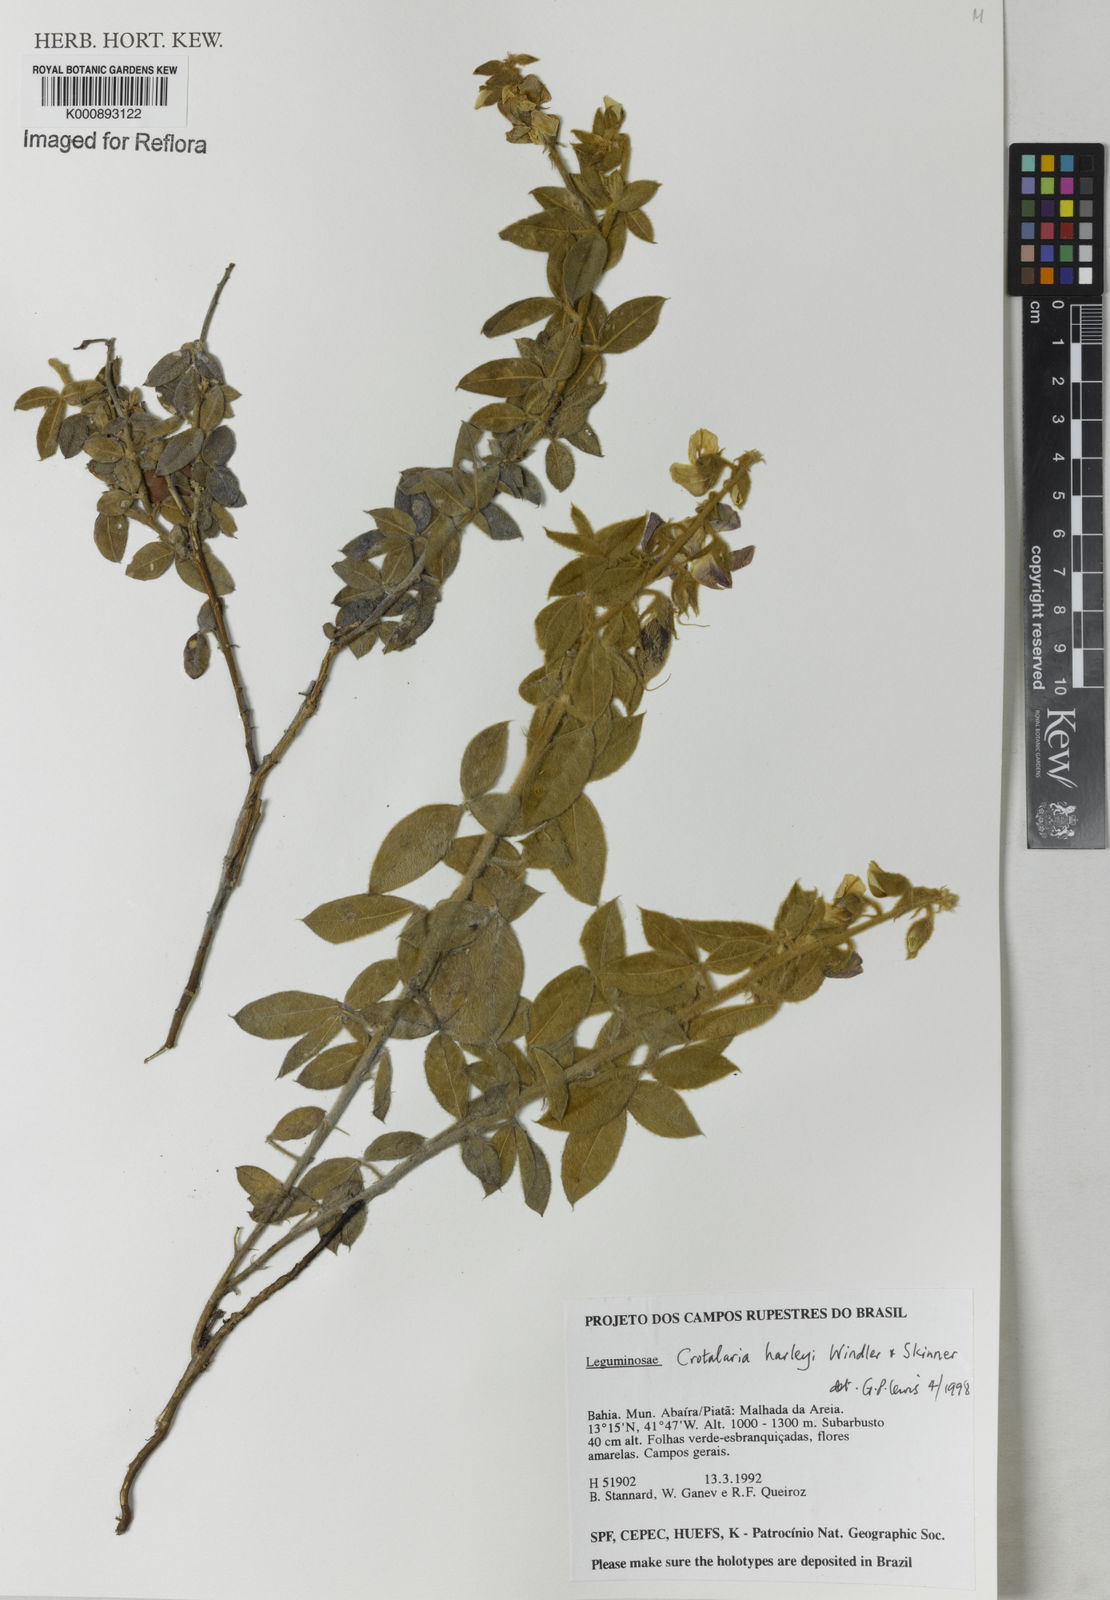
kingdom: Plantae
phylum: Tracheophyta
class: Magnoliopsida
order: Fabales
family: Fabaceae
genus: Crotalaria
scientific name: Crotalaria harleyi
